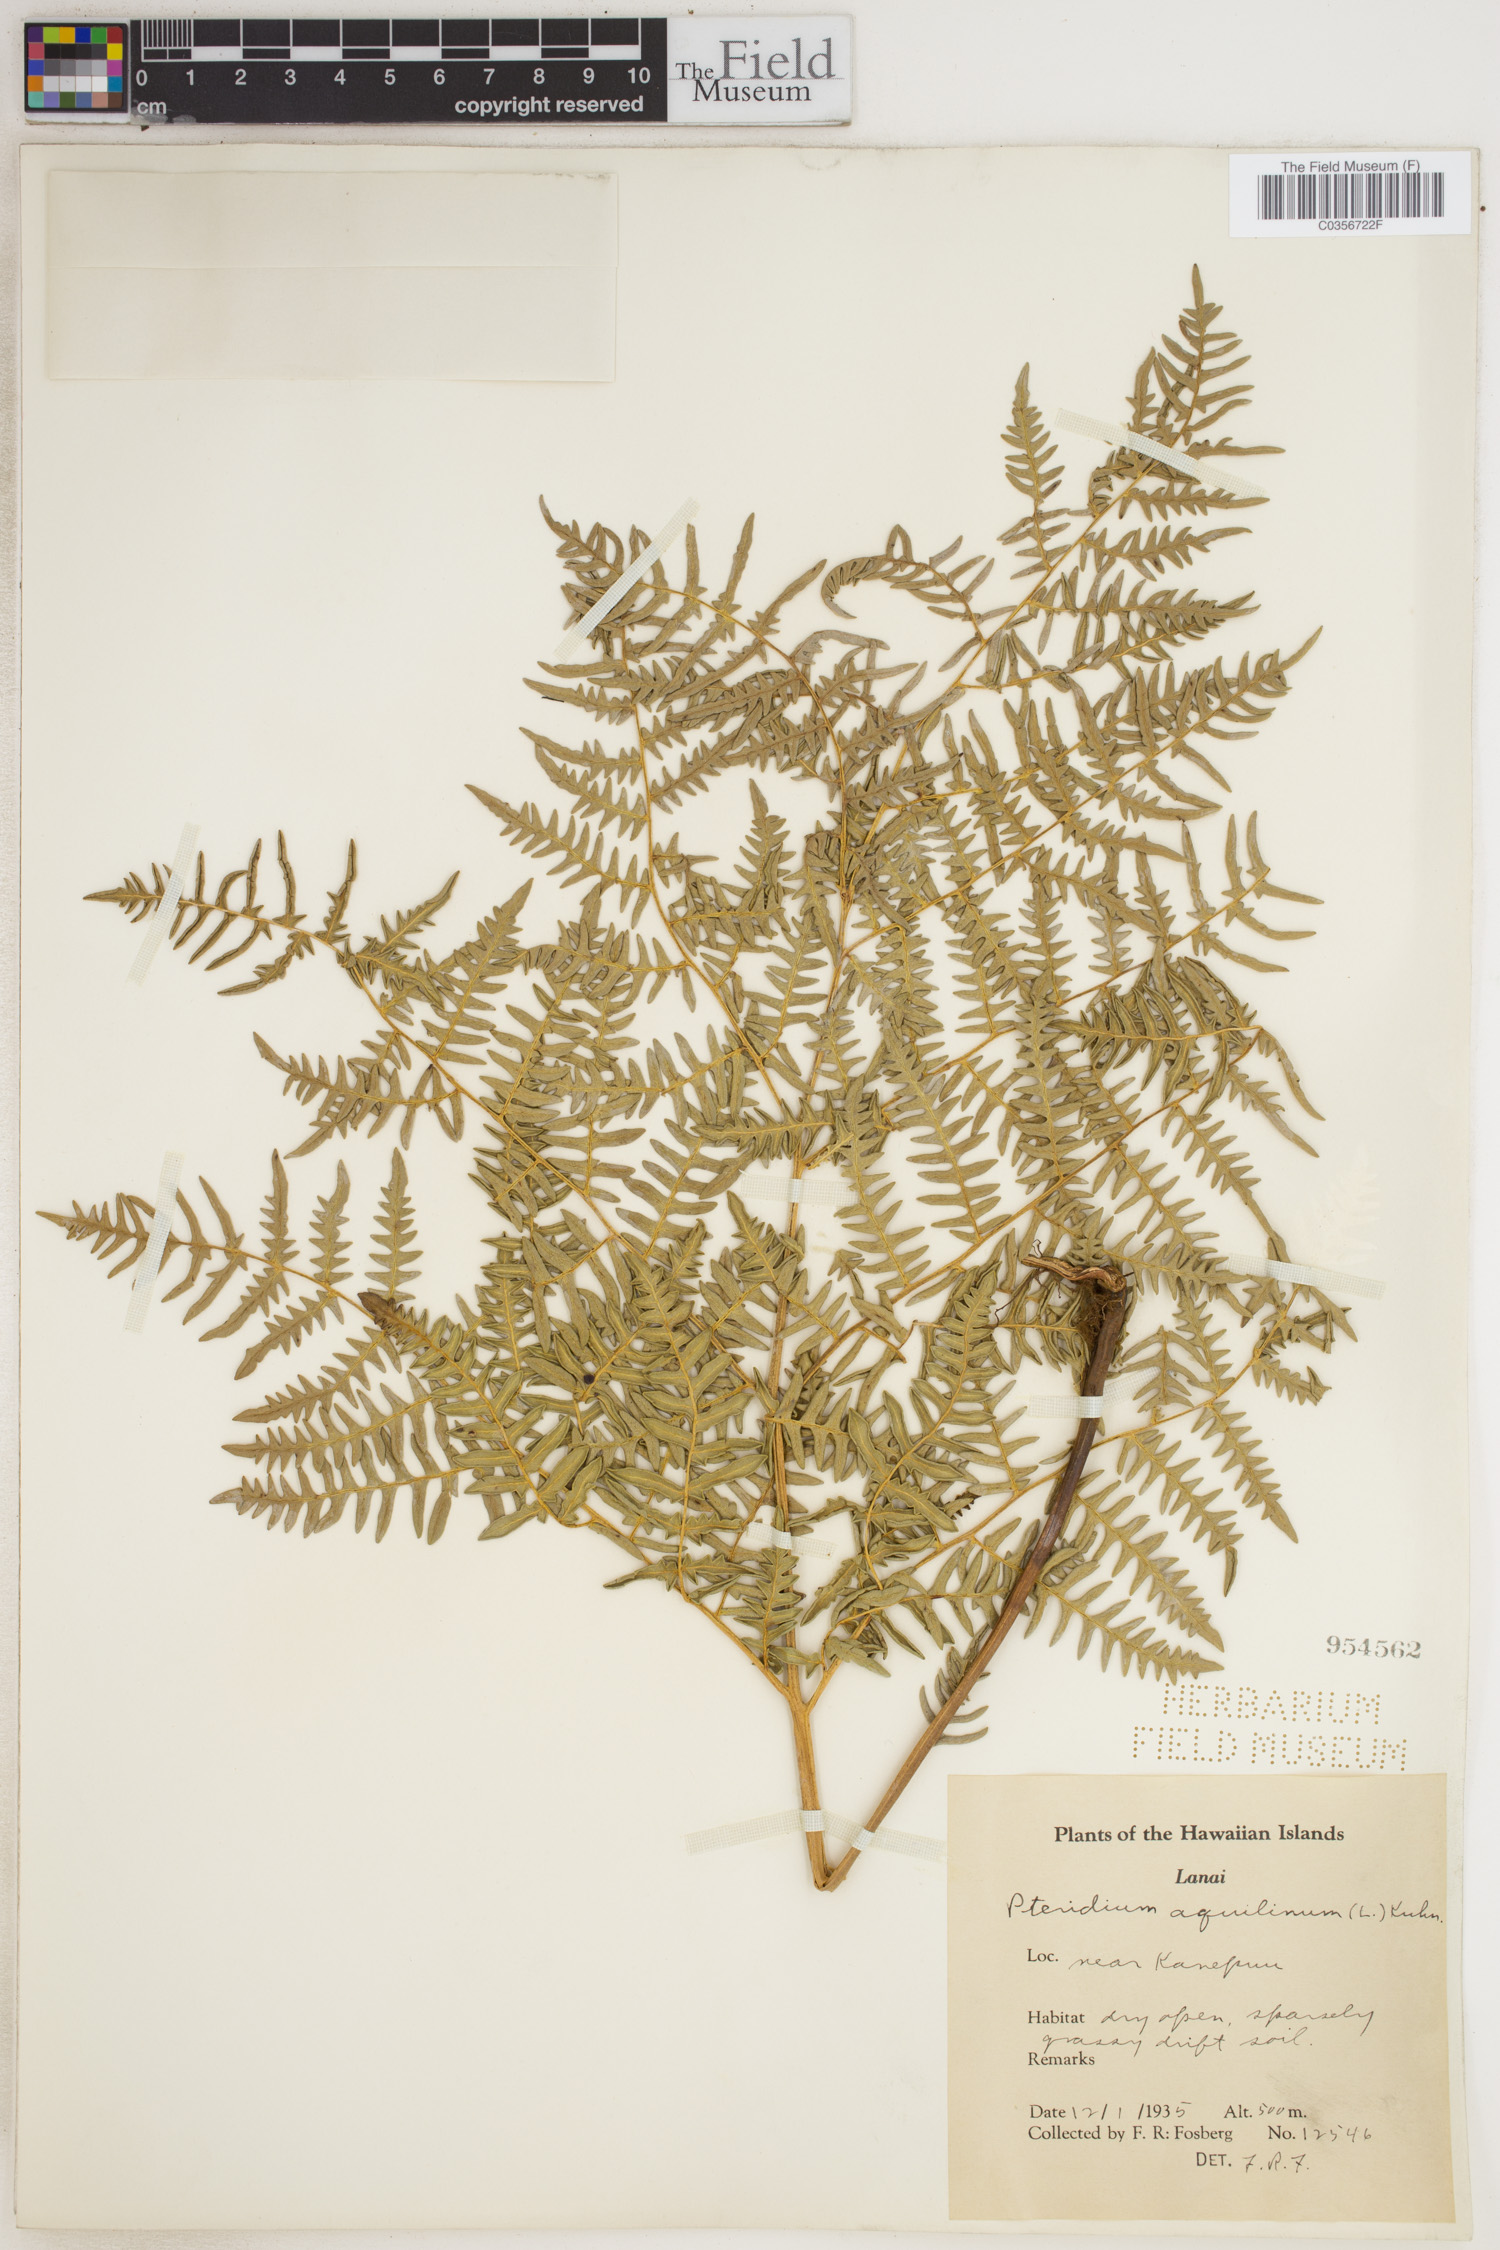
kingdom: Plantae
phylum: Tracheophyta
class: Polypodiopsida
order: Polypodiales
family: Dennstaedtiaceae
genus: Pteridium
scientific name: Pteridium aquilinum
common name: Bracken
